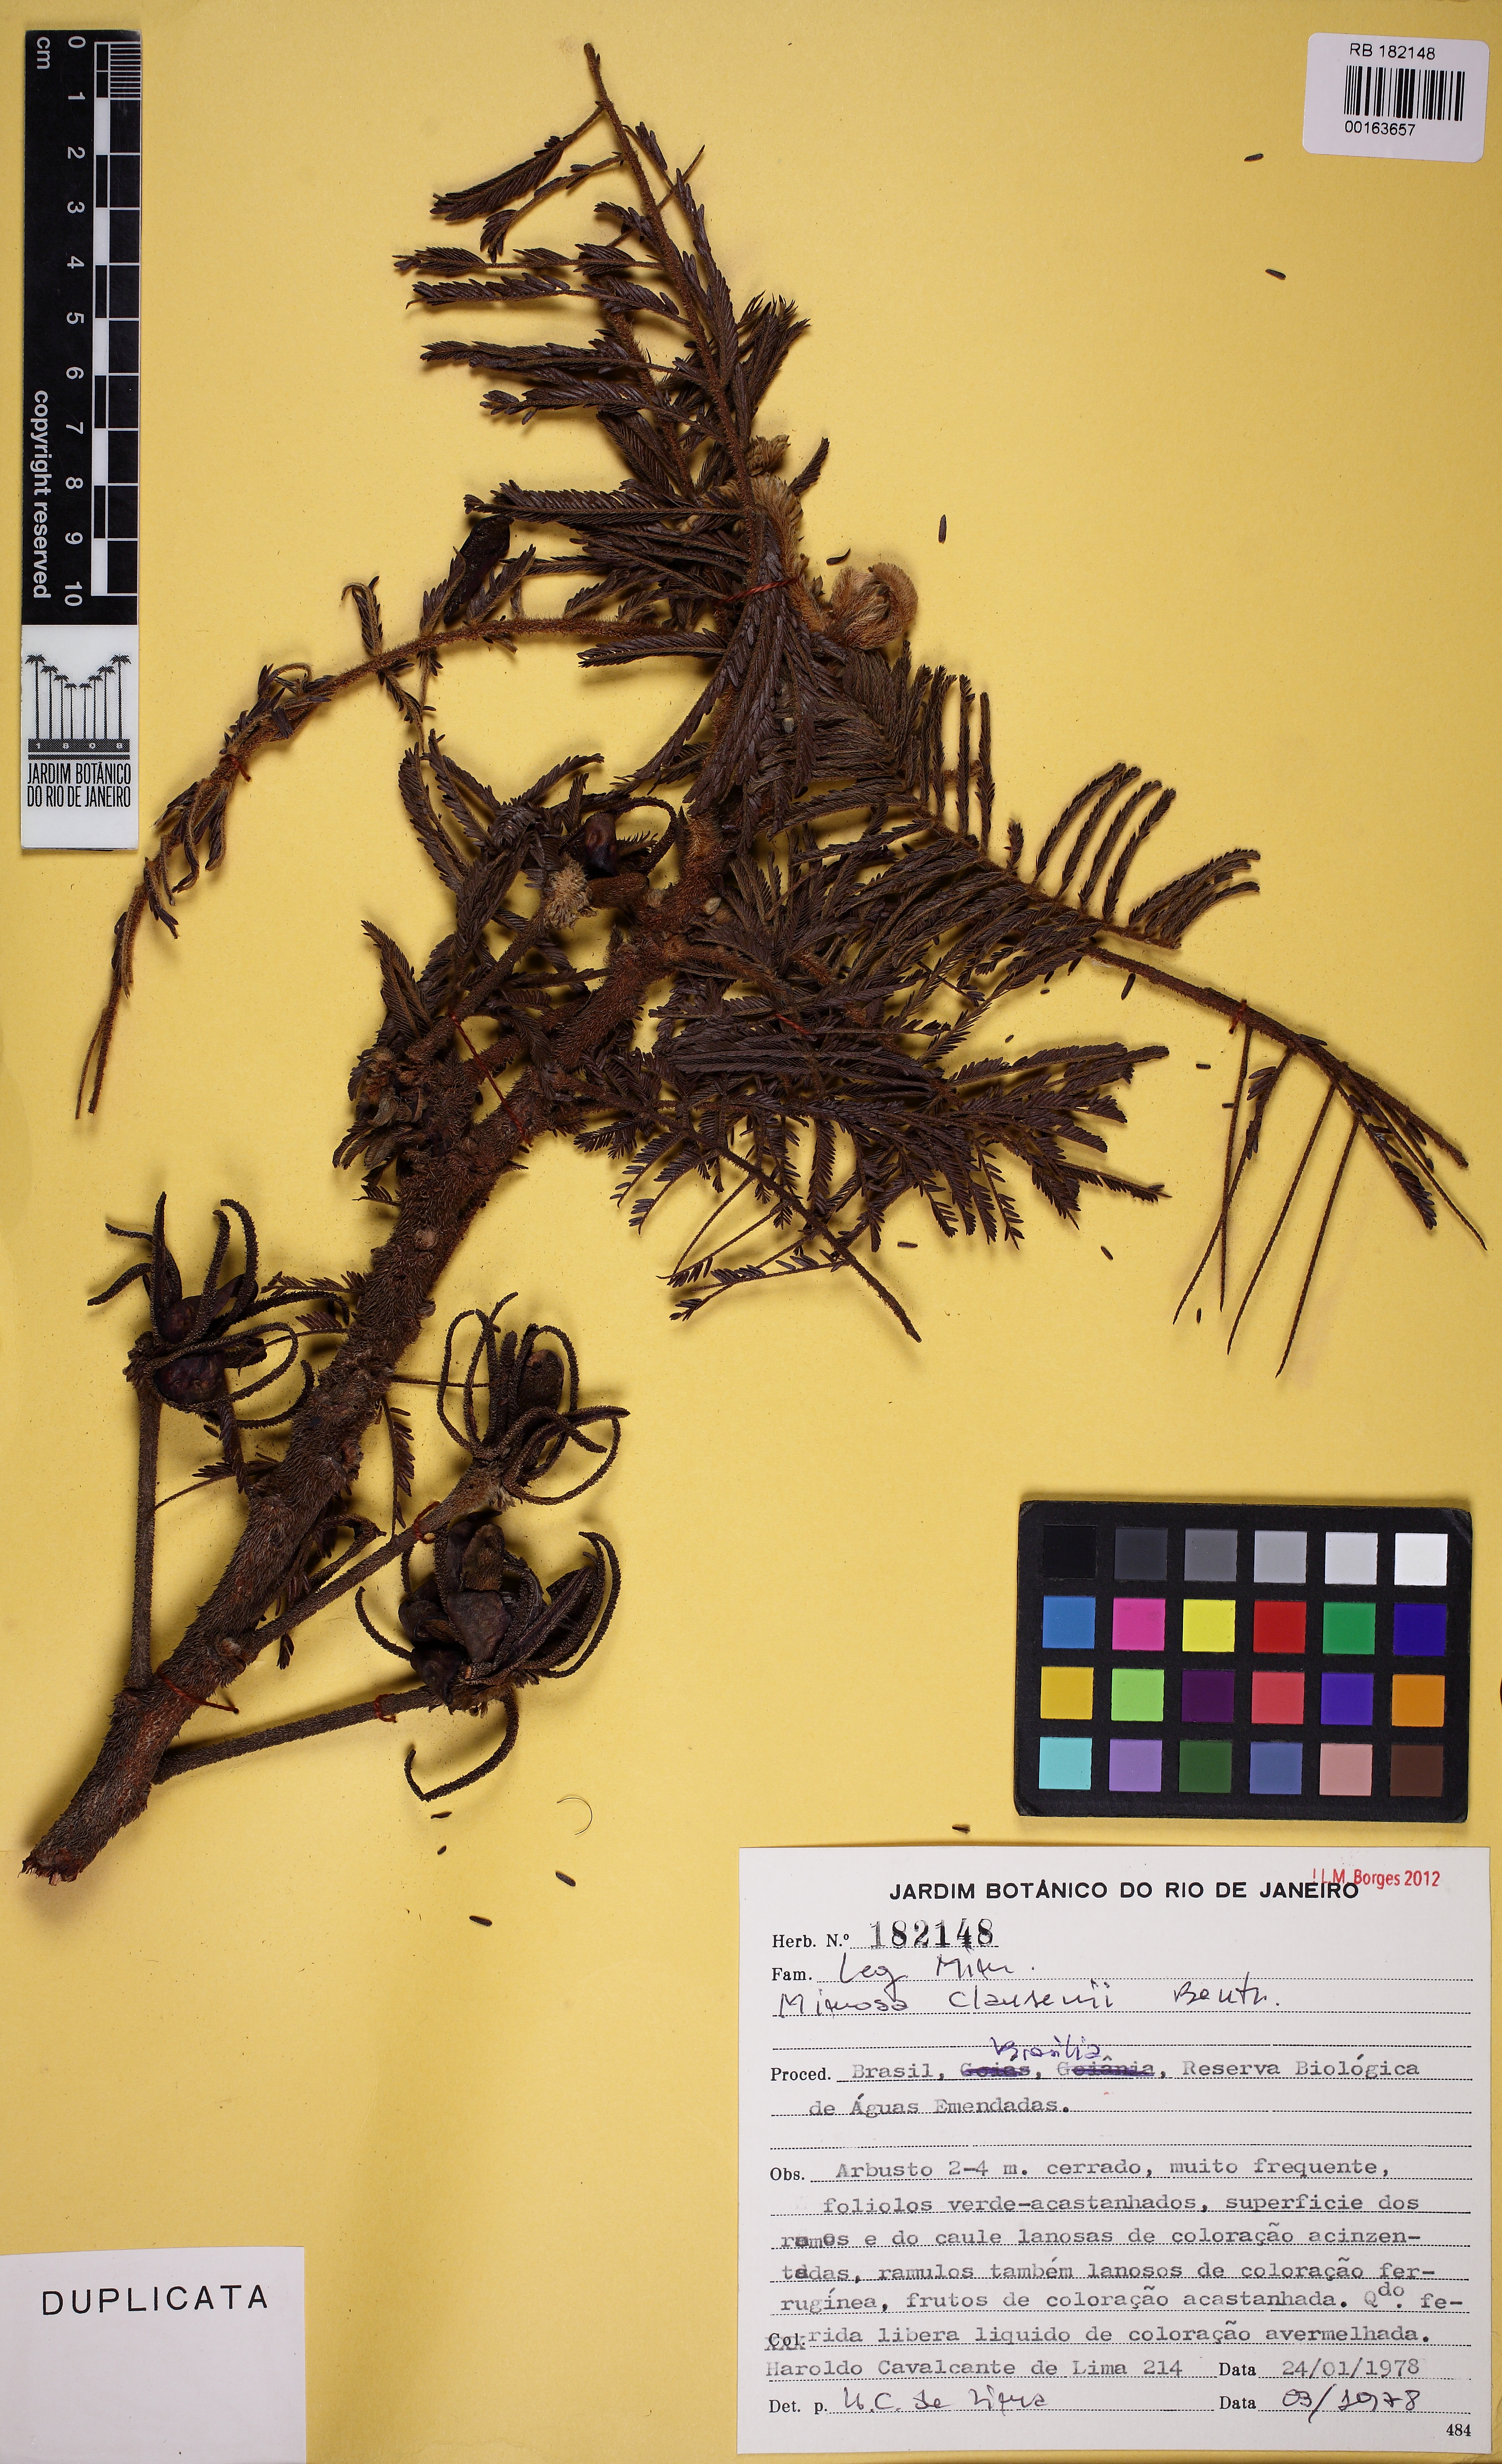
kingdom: Plantae
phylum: Tracheophyta
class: Magnoliopsida
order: Fabales
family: Fabaceae
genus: Mimosa
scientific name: Mimosa claussenii
